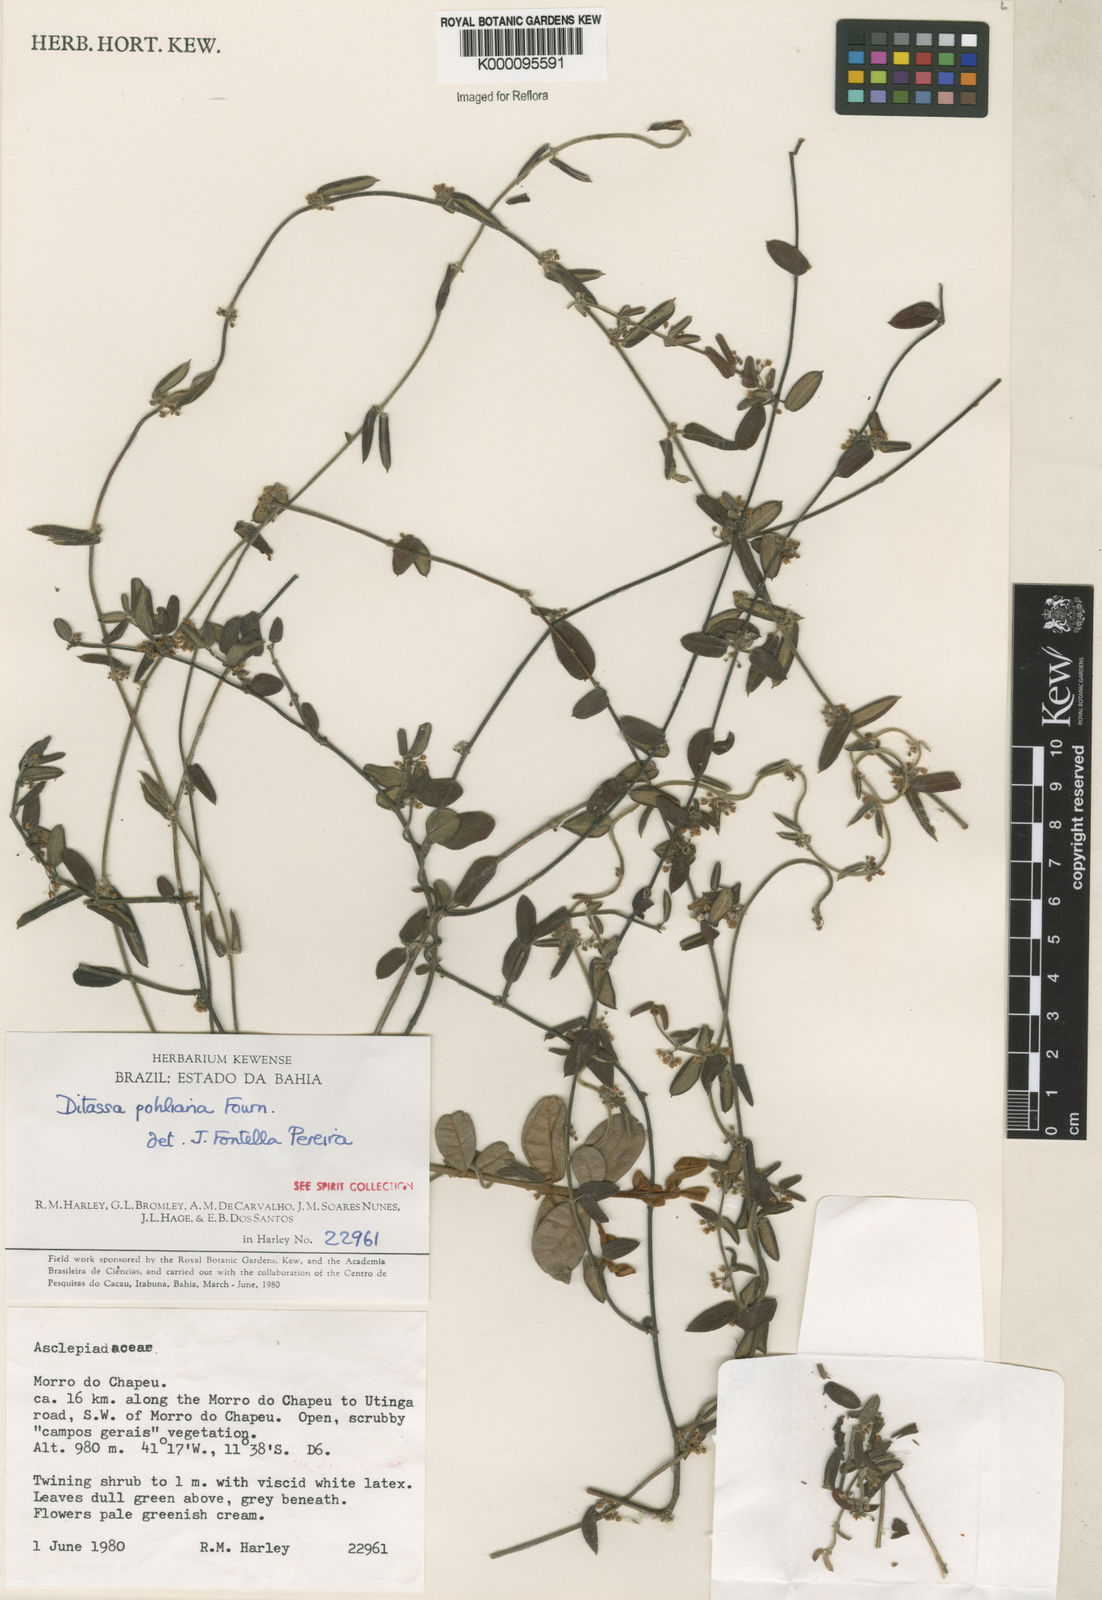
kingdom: Plantae
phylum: Tracheophyta
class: Magnoliopsida
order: Gentianales
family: Apocynaceae
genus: Ditassa
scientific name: Ditassa pohliana
